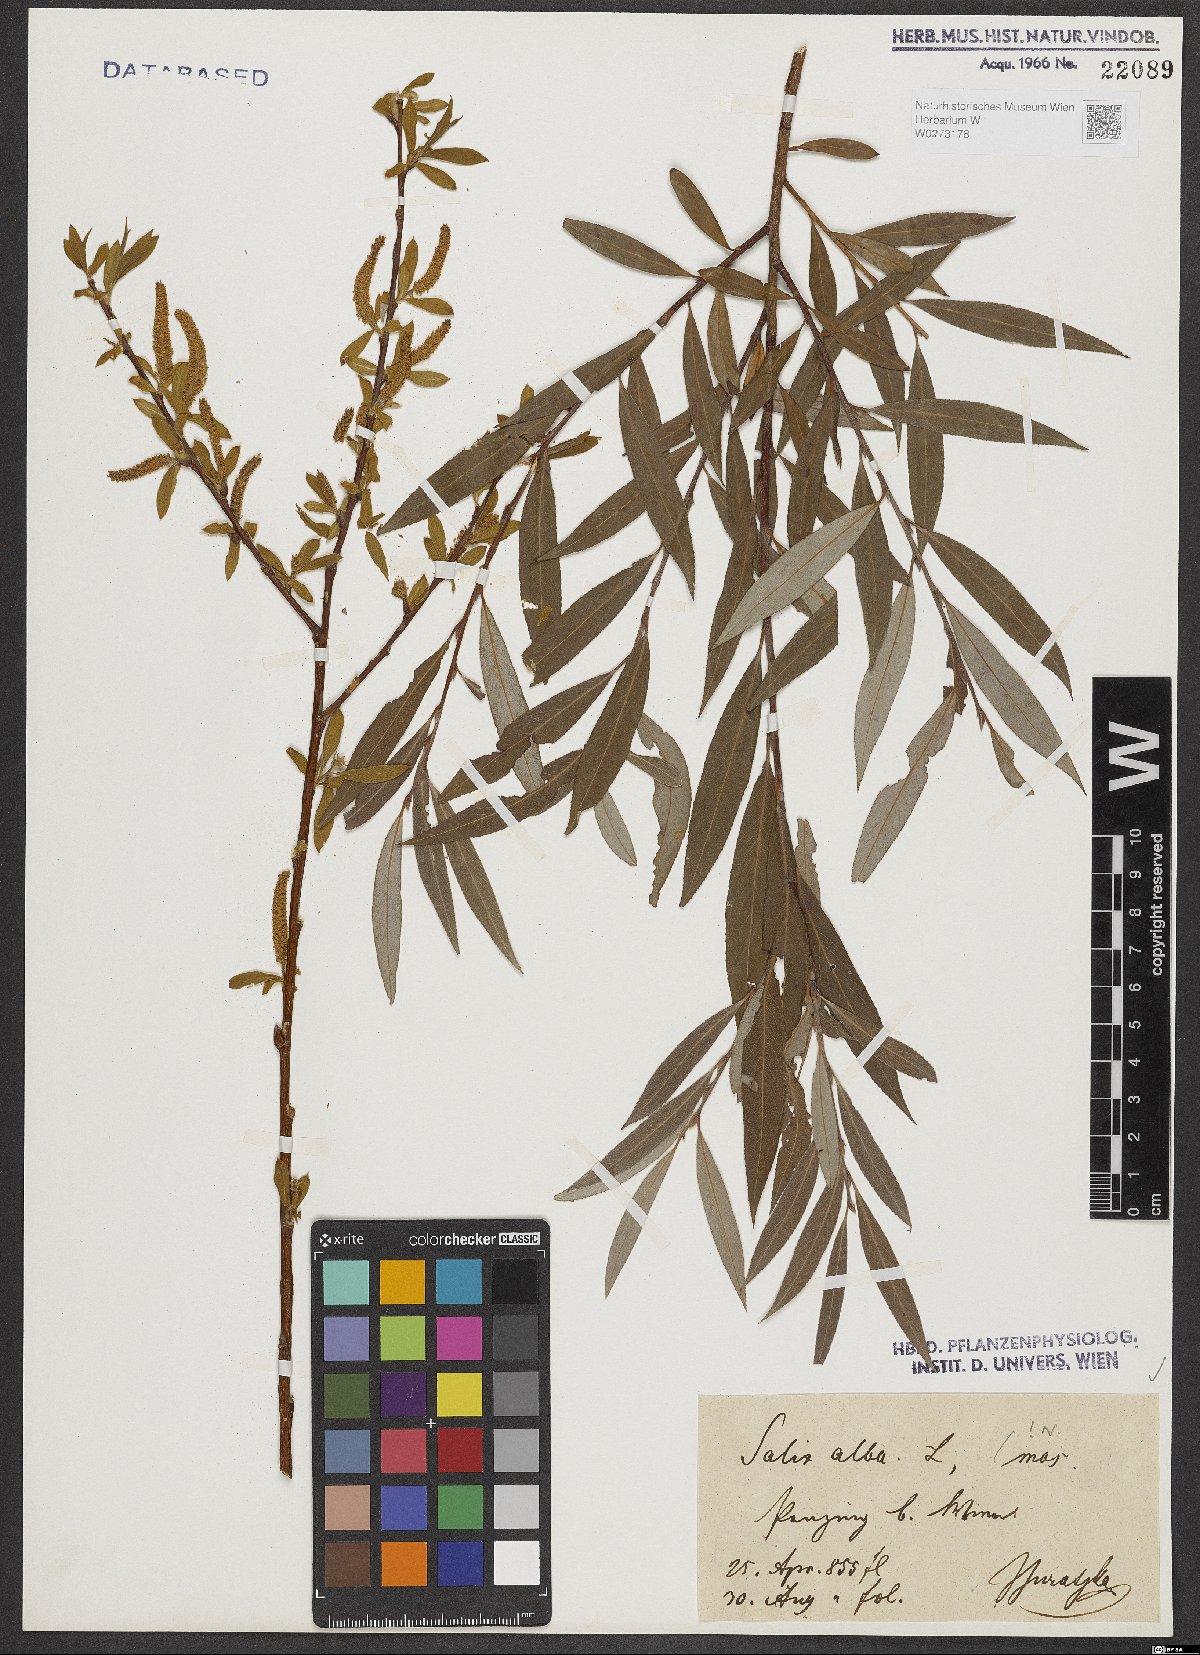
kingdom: Plantae
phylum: Tracheophyta
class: Magnoliopsida
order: Malpighiales
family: Salicaceae
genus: Salix
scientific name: Salix alba
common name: White willow
